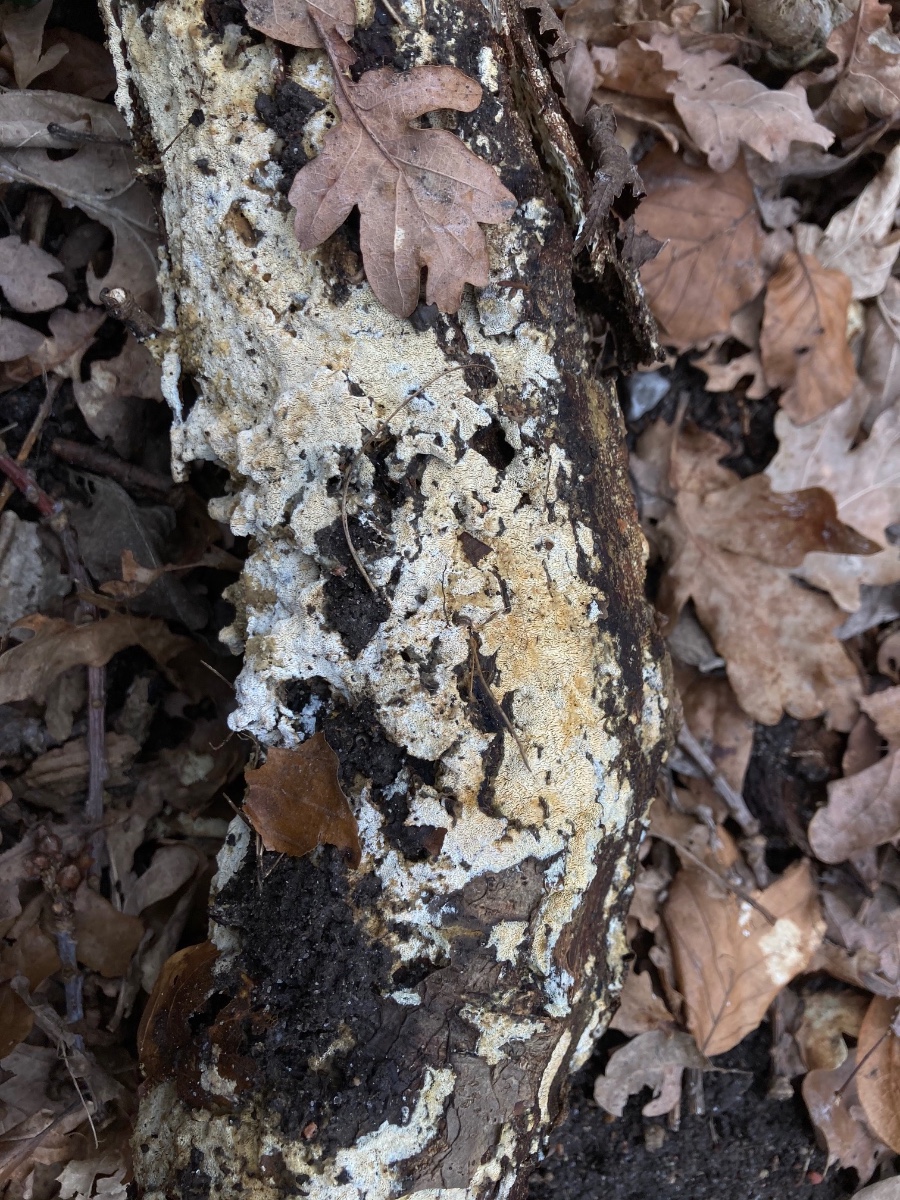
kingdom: Fungi
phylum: Basidiomycota
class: Agaricomycetes
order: Hymenochaetales
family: Schizoporaceae
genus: Xylodon
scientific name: Xylodon subtropicus
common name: labyrint-tandsvamp
